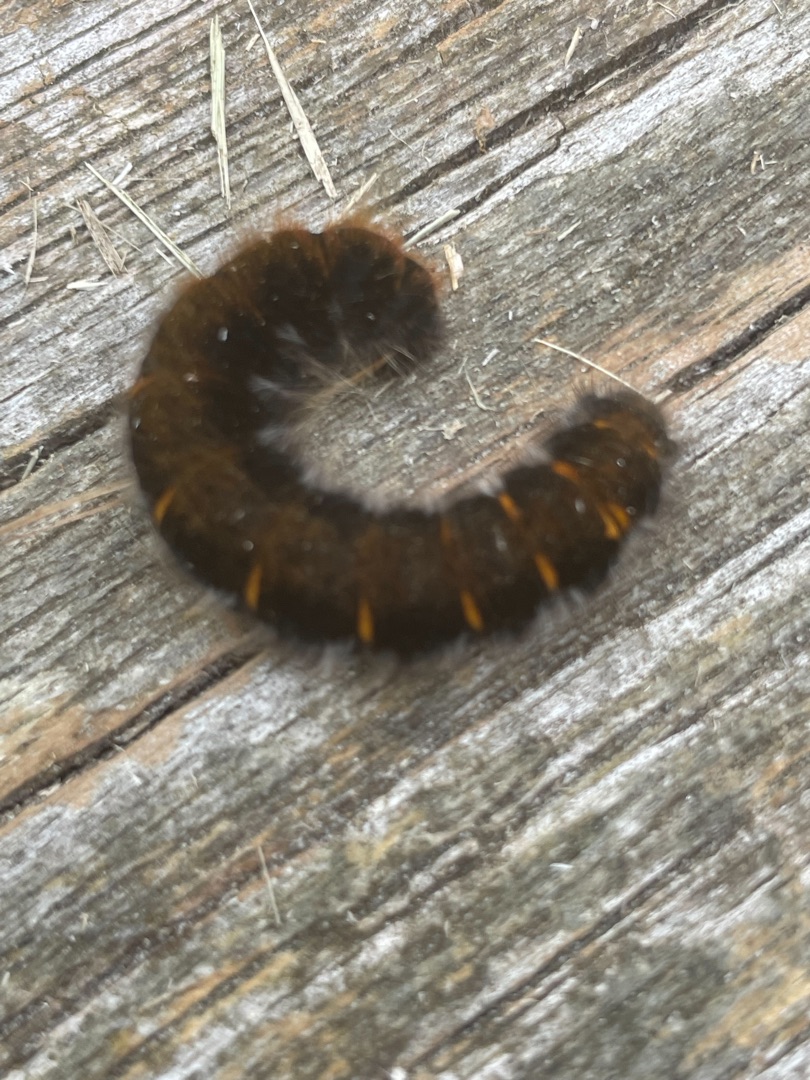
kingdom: Animalia
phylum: Arthropoda
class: Insecta
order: Lepidoptera
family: Lasiocampidae
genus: Macrothylacia
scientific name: Macrothylacia rubi
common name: Brombærspinder
